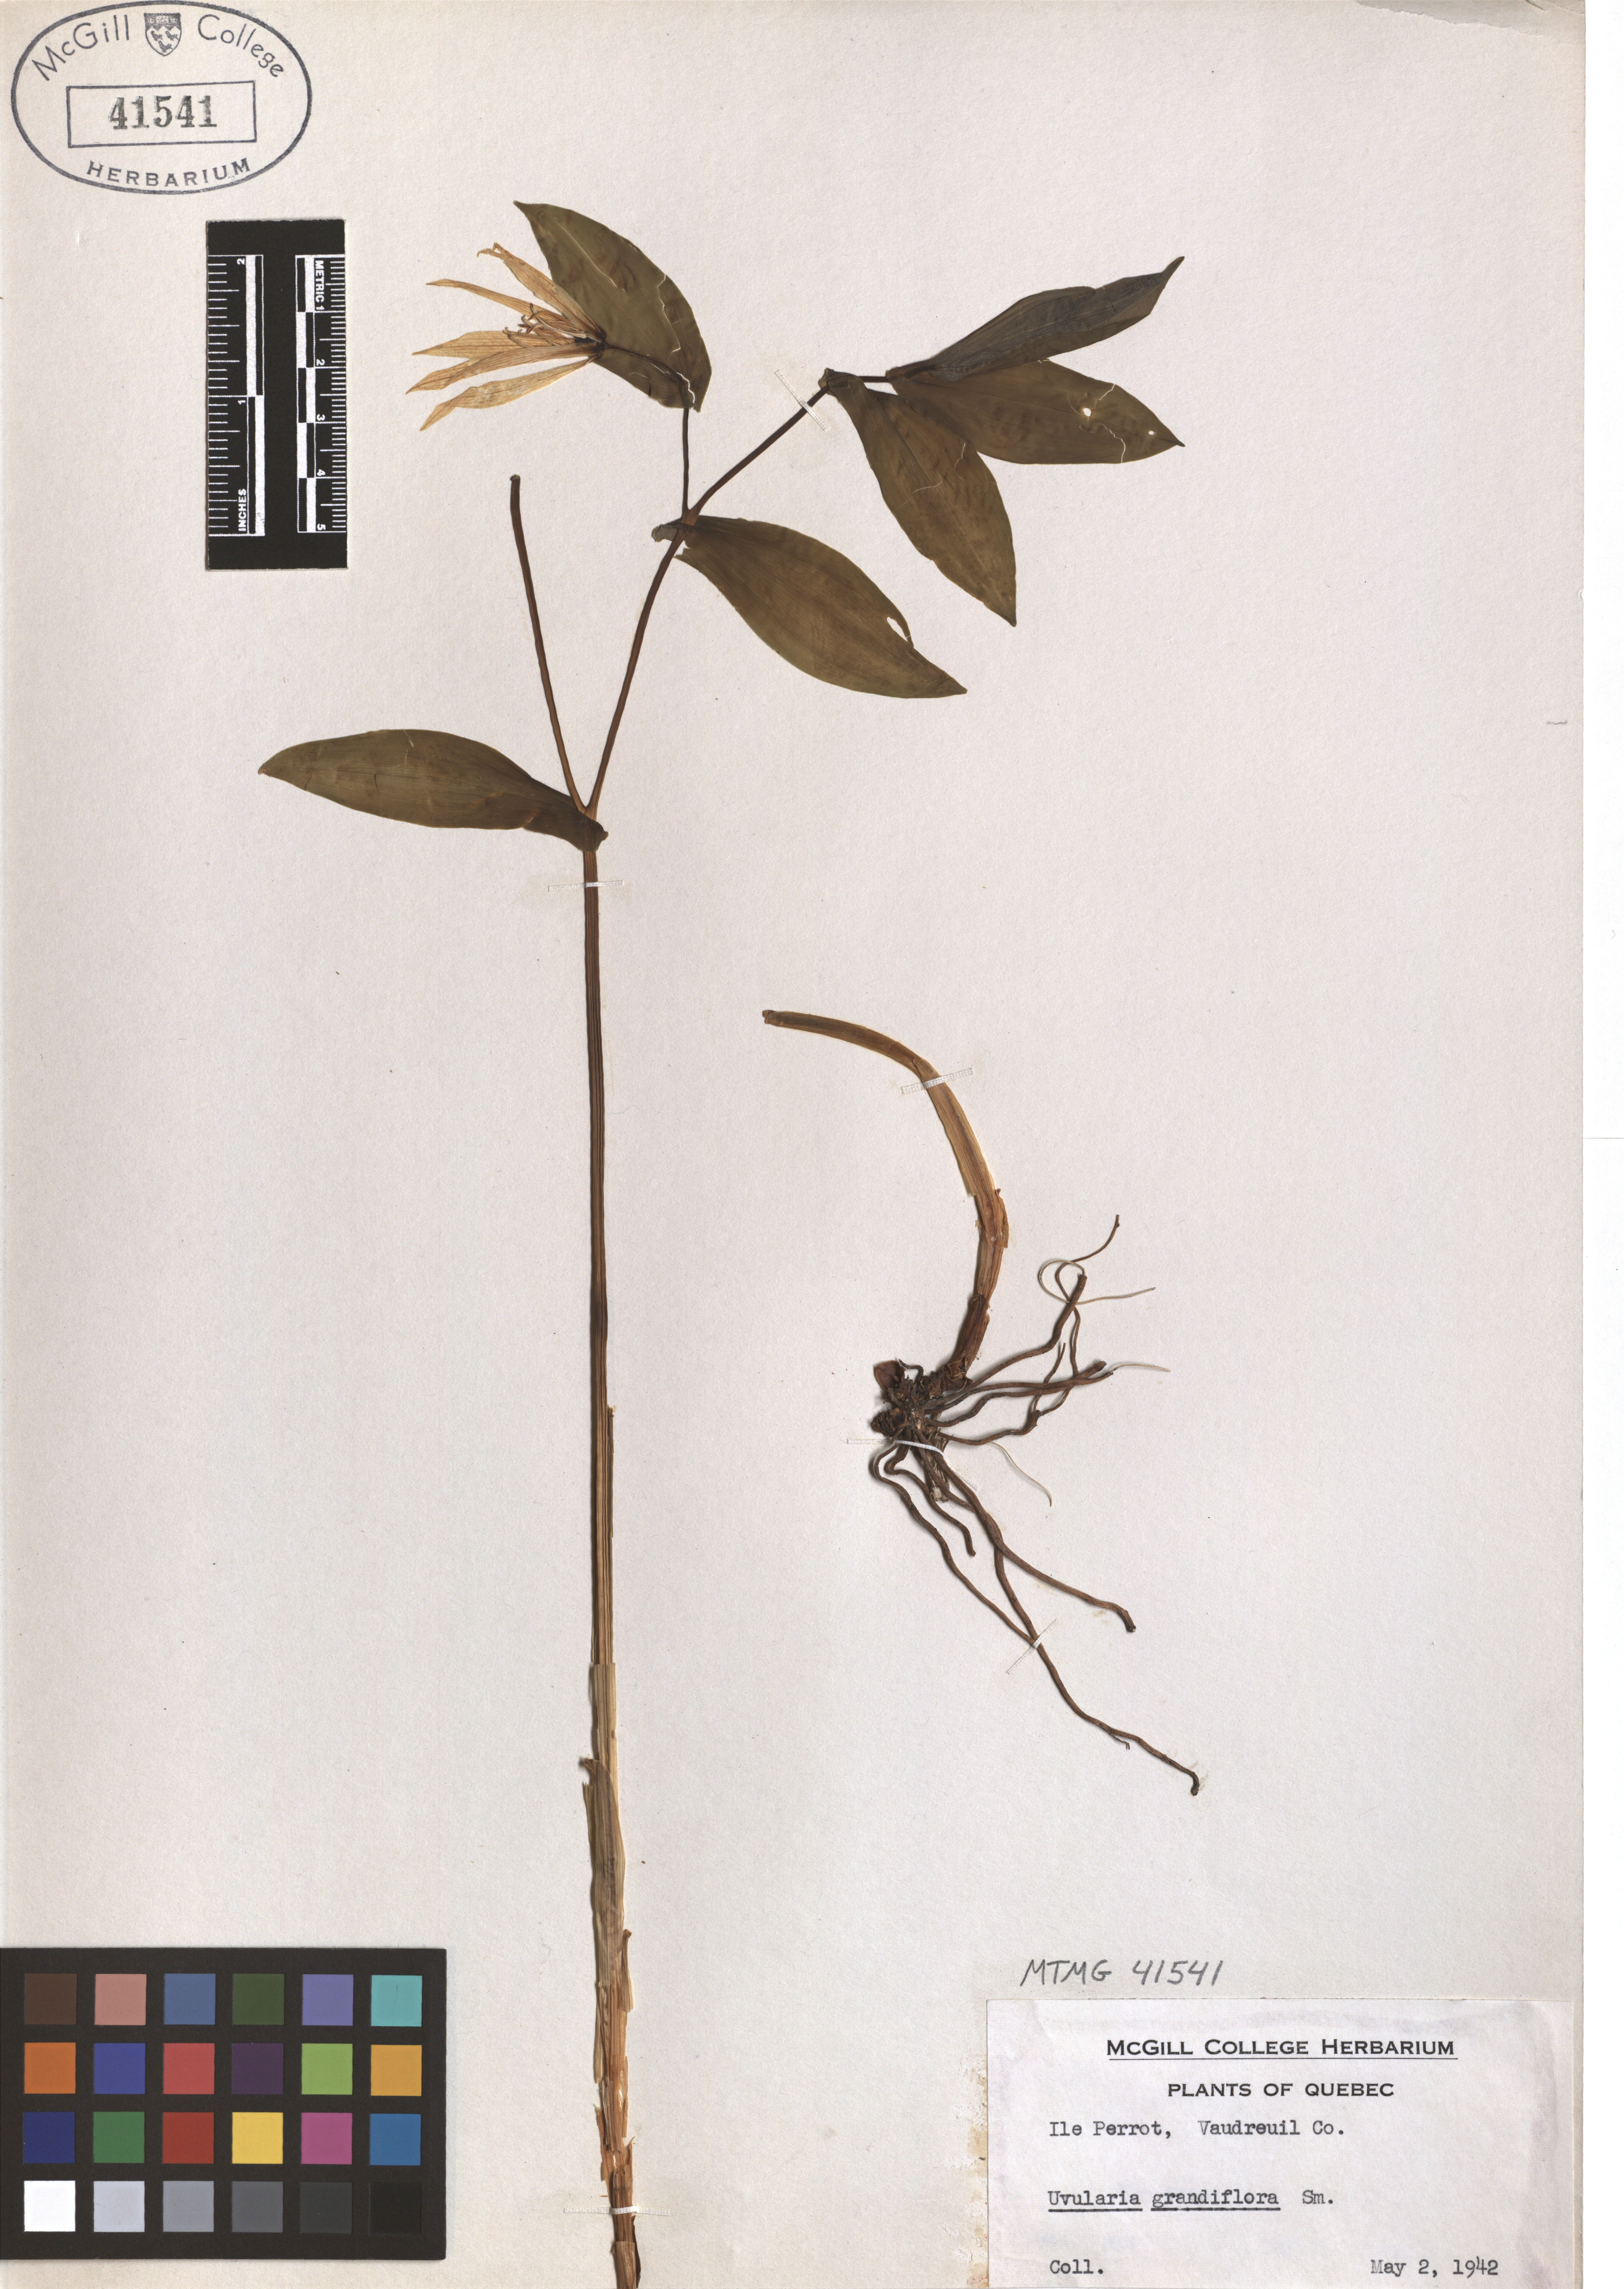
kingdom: Plantae
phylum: Tracheophyta
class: Liliopsida
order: Liliales
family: Colchicaceae
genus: Uvularia
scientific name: Uvularia grandiflora
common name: Bellwort
